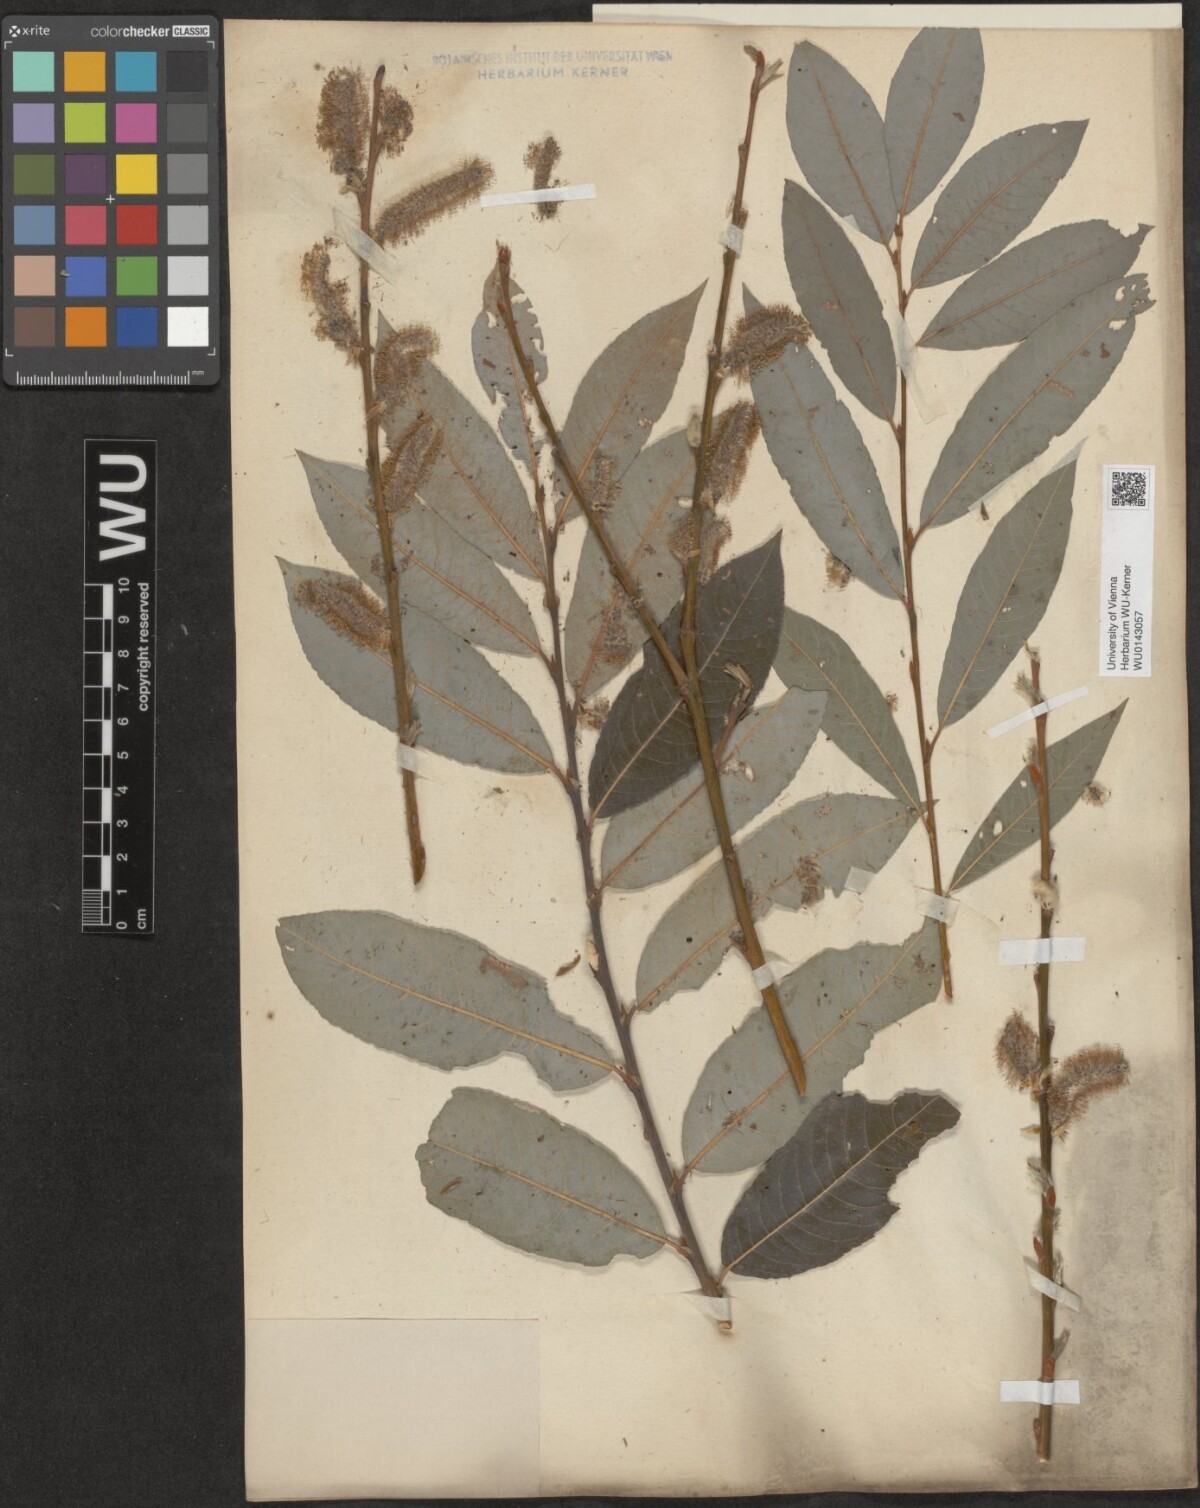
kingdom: Plantae
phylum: Tracheophyta
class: Magnoliopsida
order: Malpighiales
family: Salicaceae
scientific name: Salicaceae
